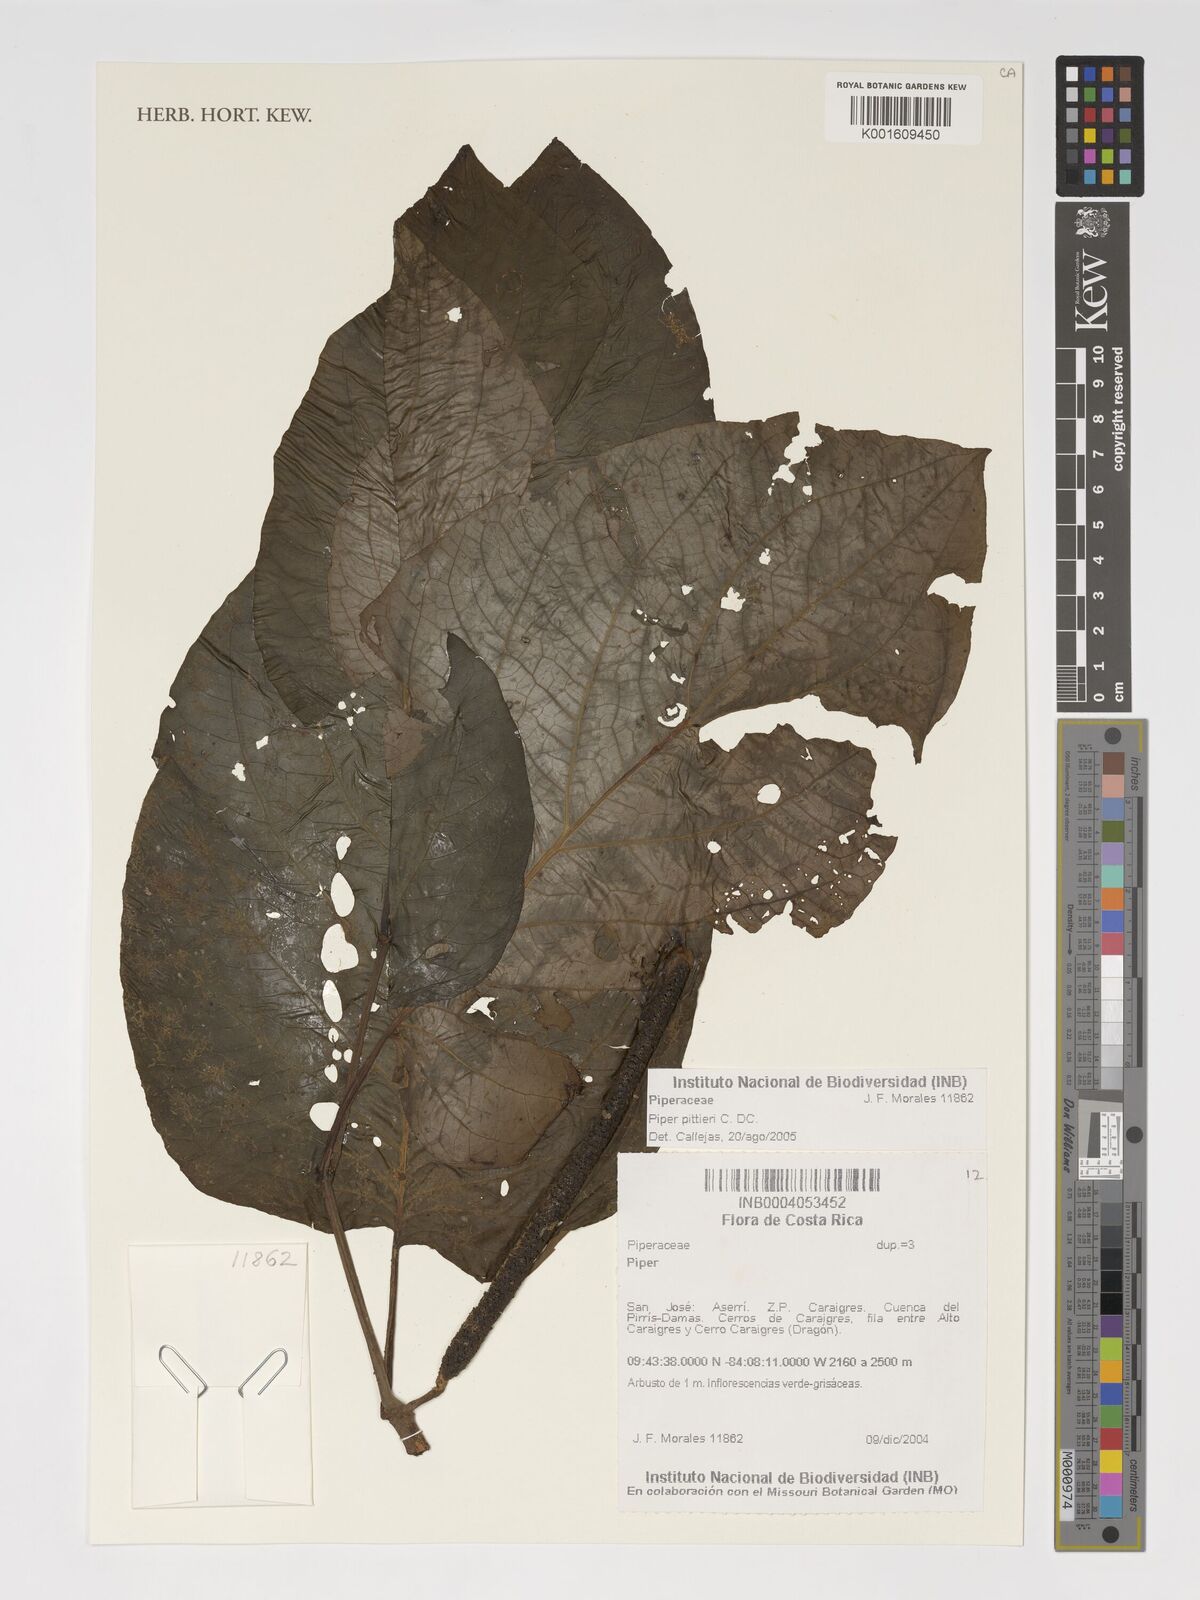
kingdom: Plantae
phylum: Tracheophyta
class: Magnoliopsida
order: Piperales
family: Piperaceae
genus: Piper
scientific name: Piper pittieri
